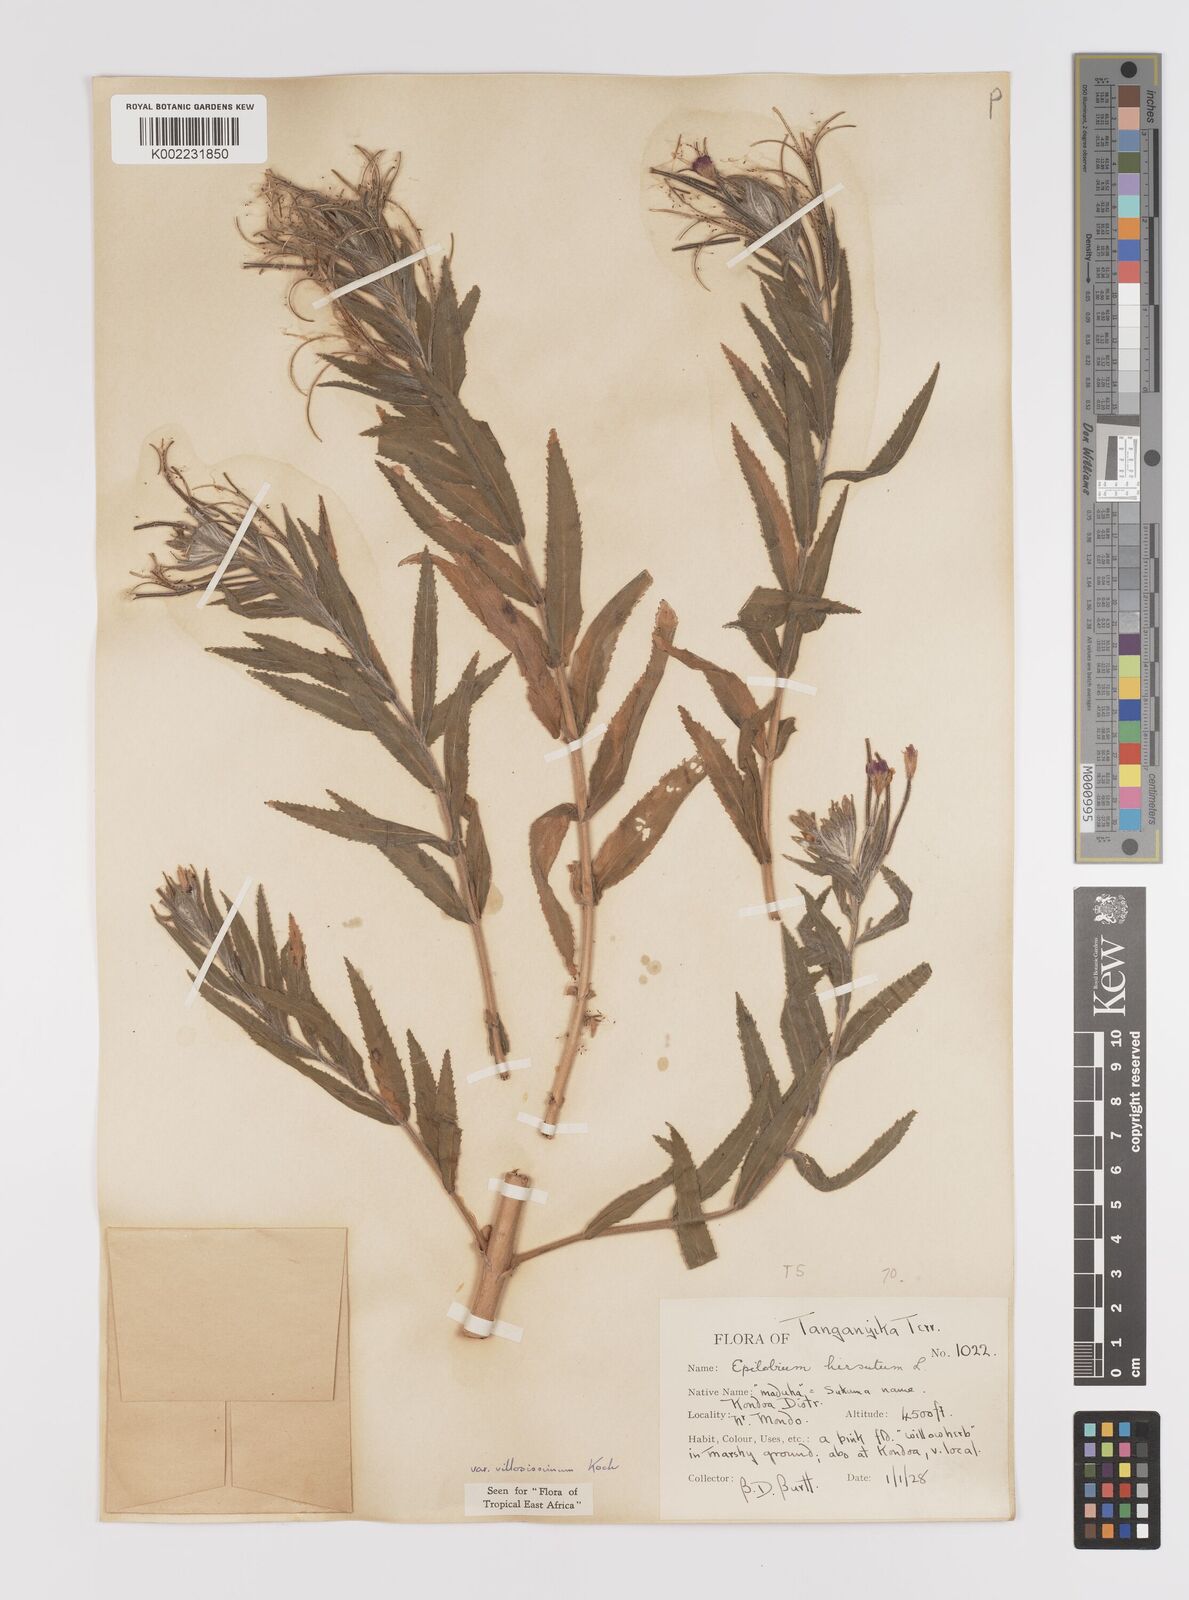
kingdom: Plantae
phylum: Tracheophyta
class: Magnoliopsida
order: Myrtales
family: Onagraceae
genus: Epilobium
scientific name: Epilobium hirsutum
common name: Great willowherb
